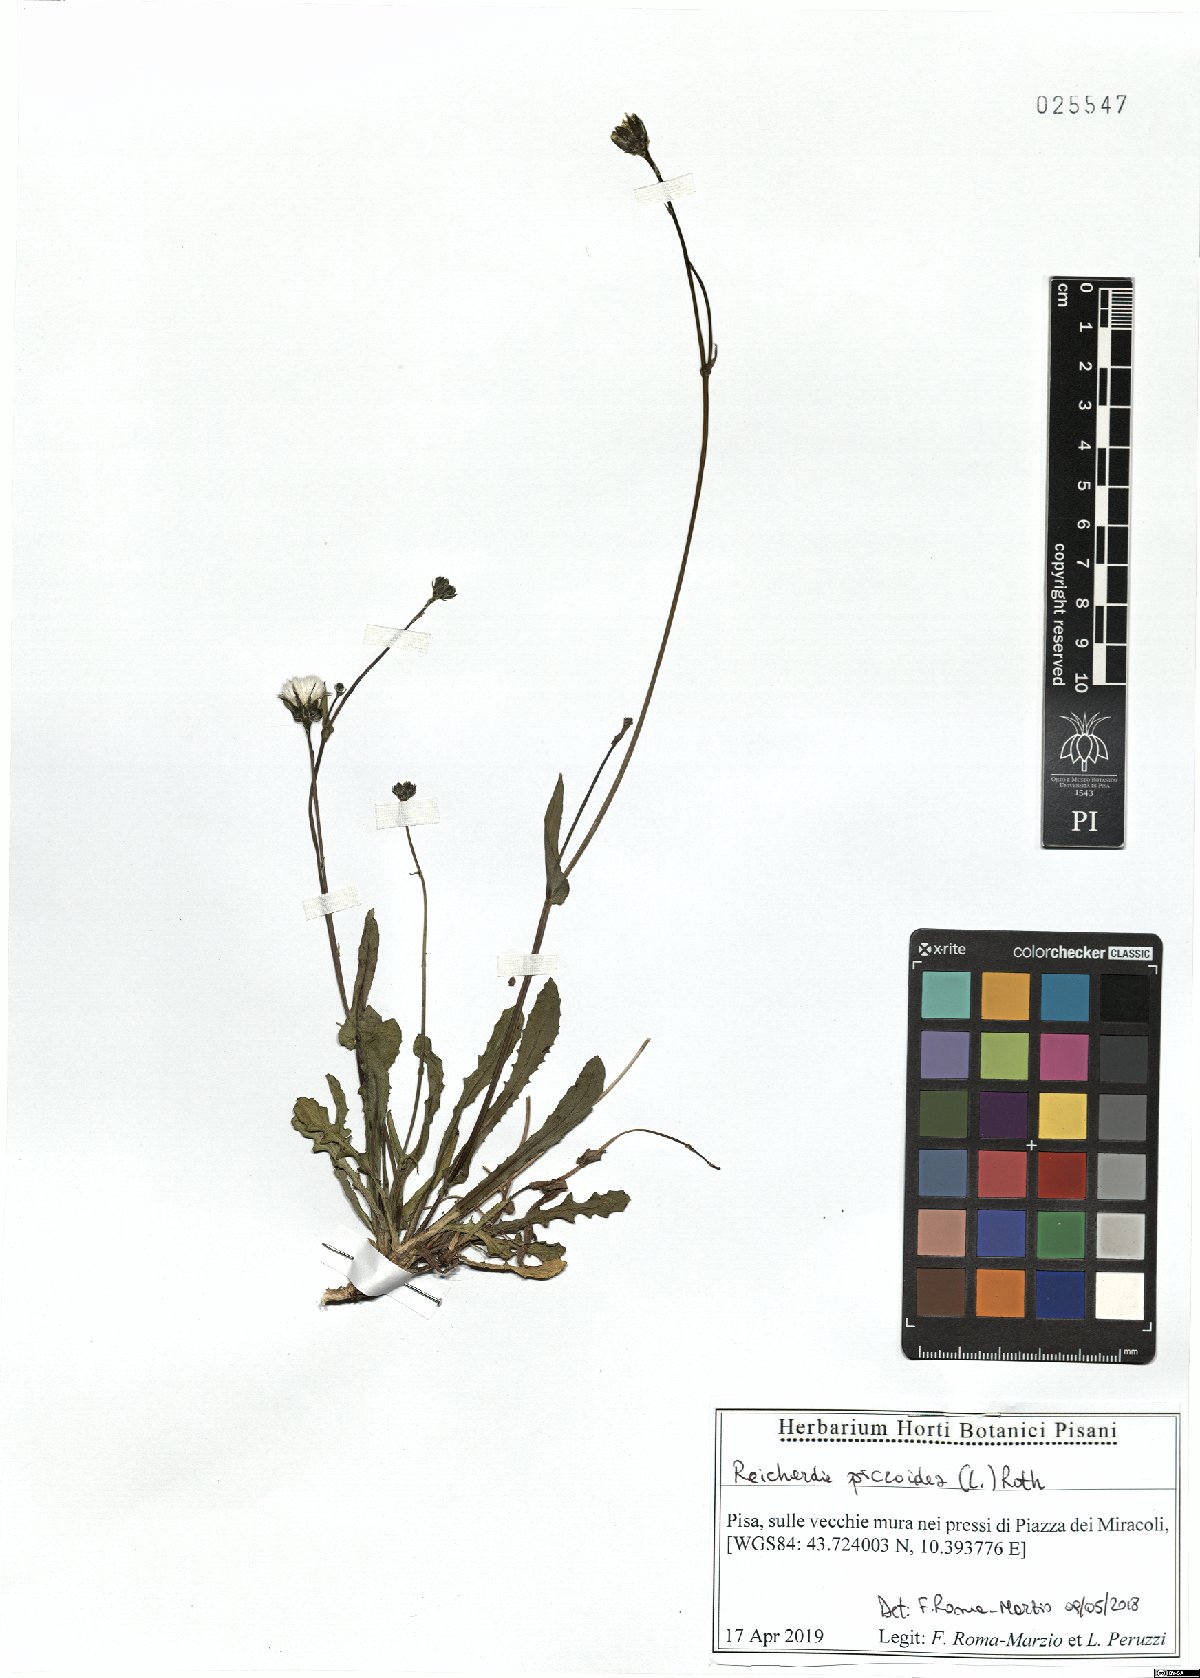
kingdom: Plantae
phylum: Tracheophyta
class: Magnoliopsida
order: Asterales
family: Asteraceae
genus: Reichardia
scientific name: Reichardia picroides
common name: Common brighteyes
